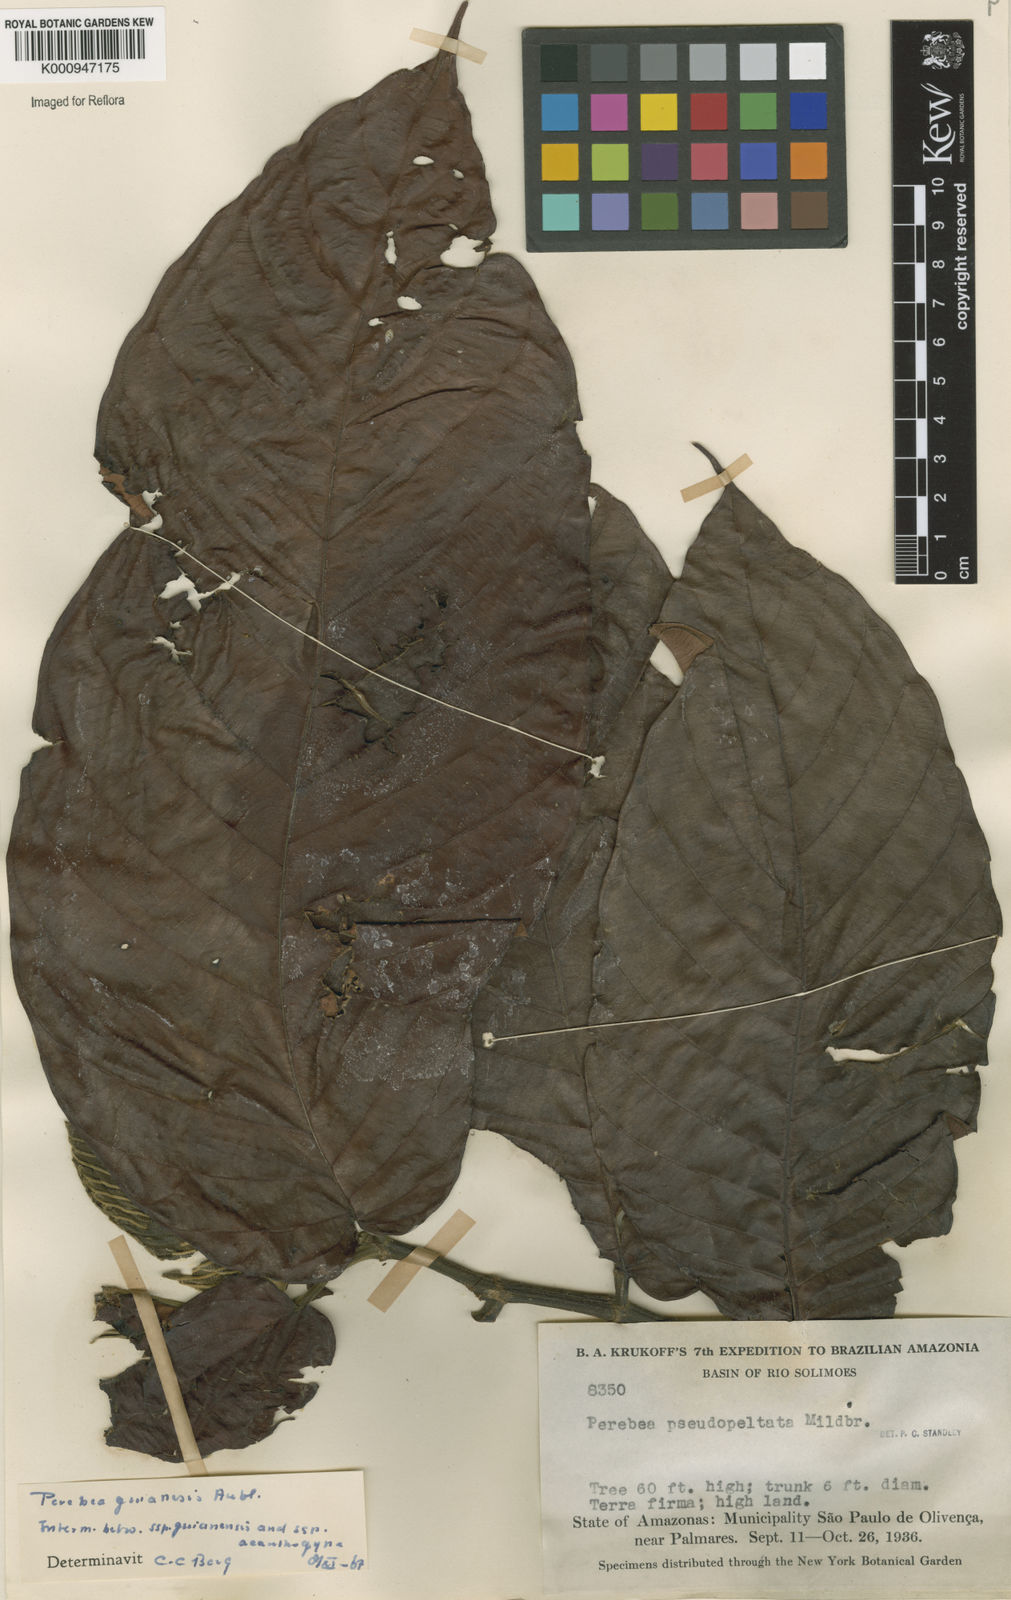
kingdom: Plantae
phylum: Tracheophyta
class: Magnoliopsida
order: Rosales
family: Moraceae
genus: Perebea
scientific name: Perebea guianensis
